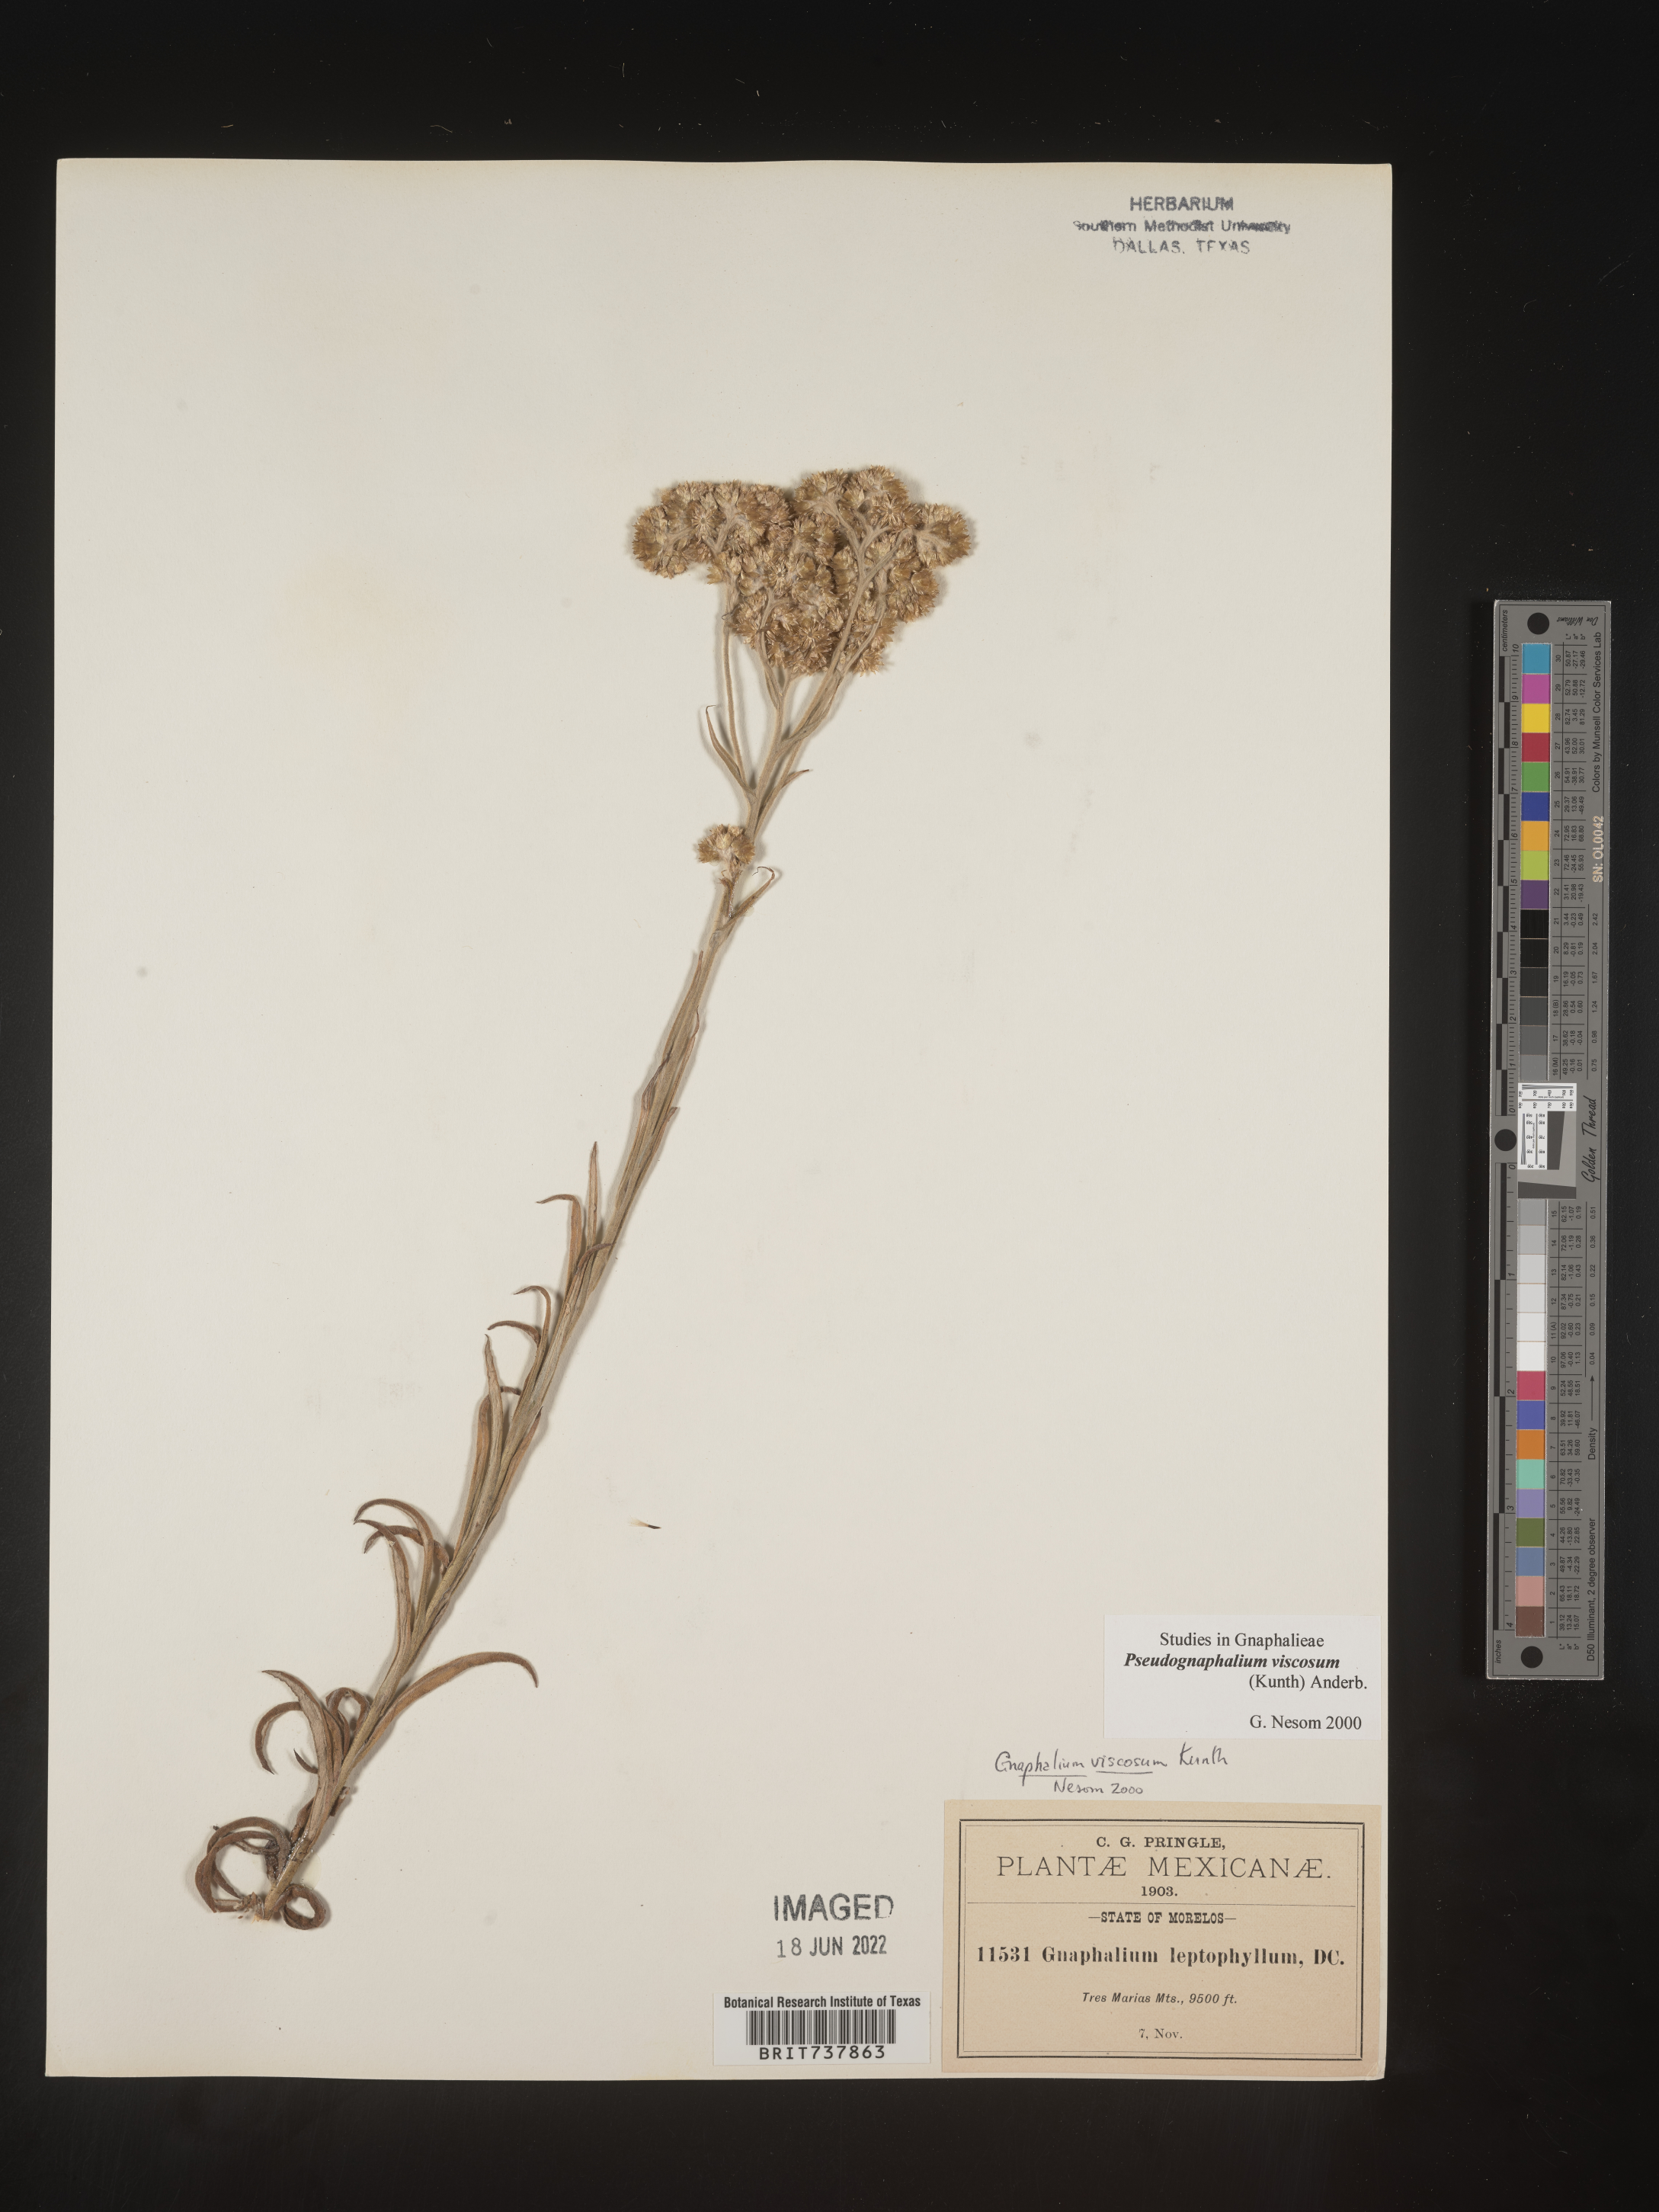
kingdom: Plantae
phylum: Tracheophyta
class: Magnoliopsida
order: Asterales
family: Asteraceae
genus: Pseudognaphalium
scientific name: Pseudognaphalium viscosum
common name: Sticky rabbit-tobacco
